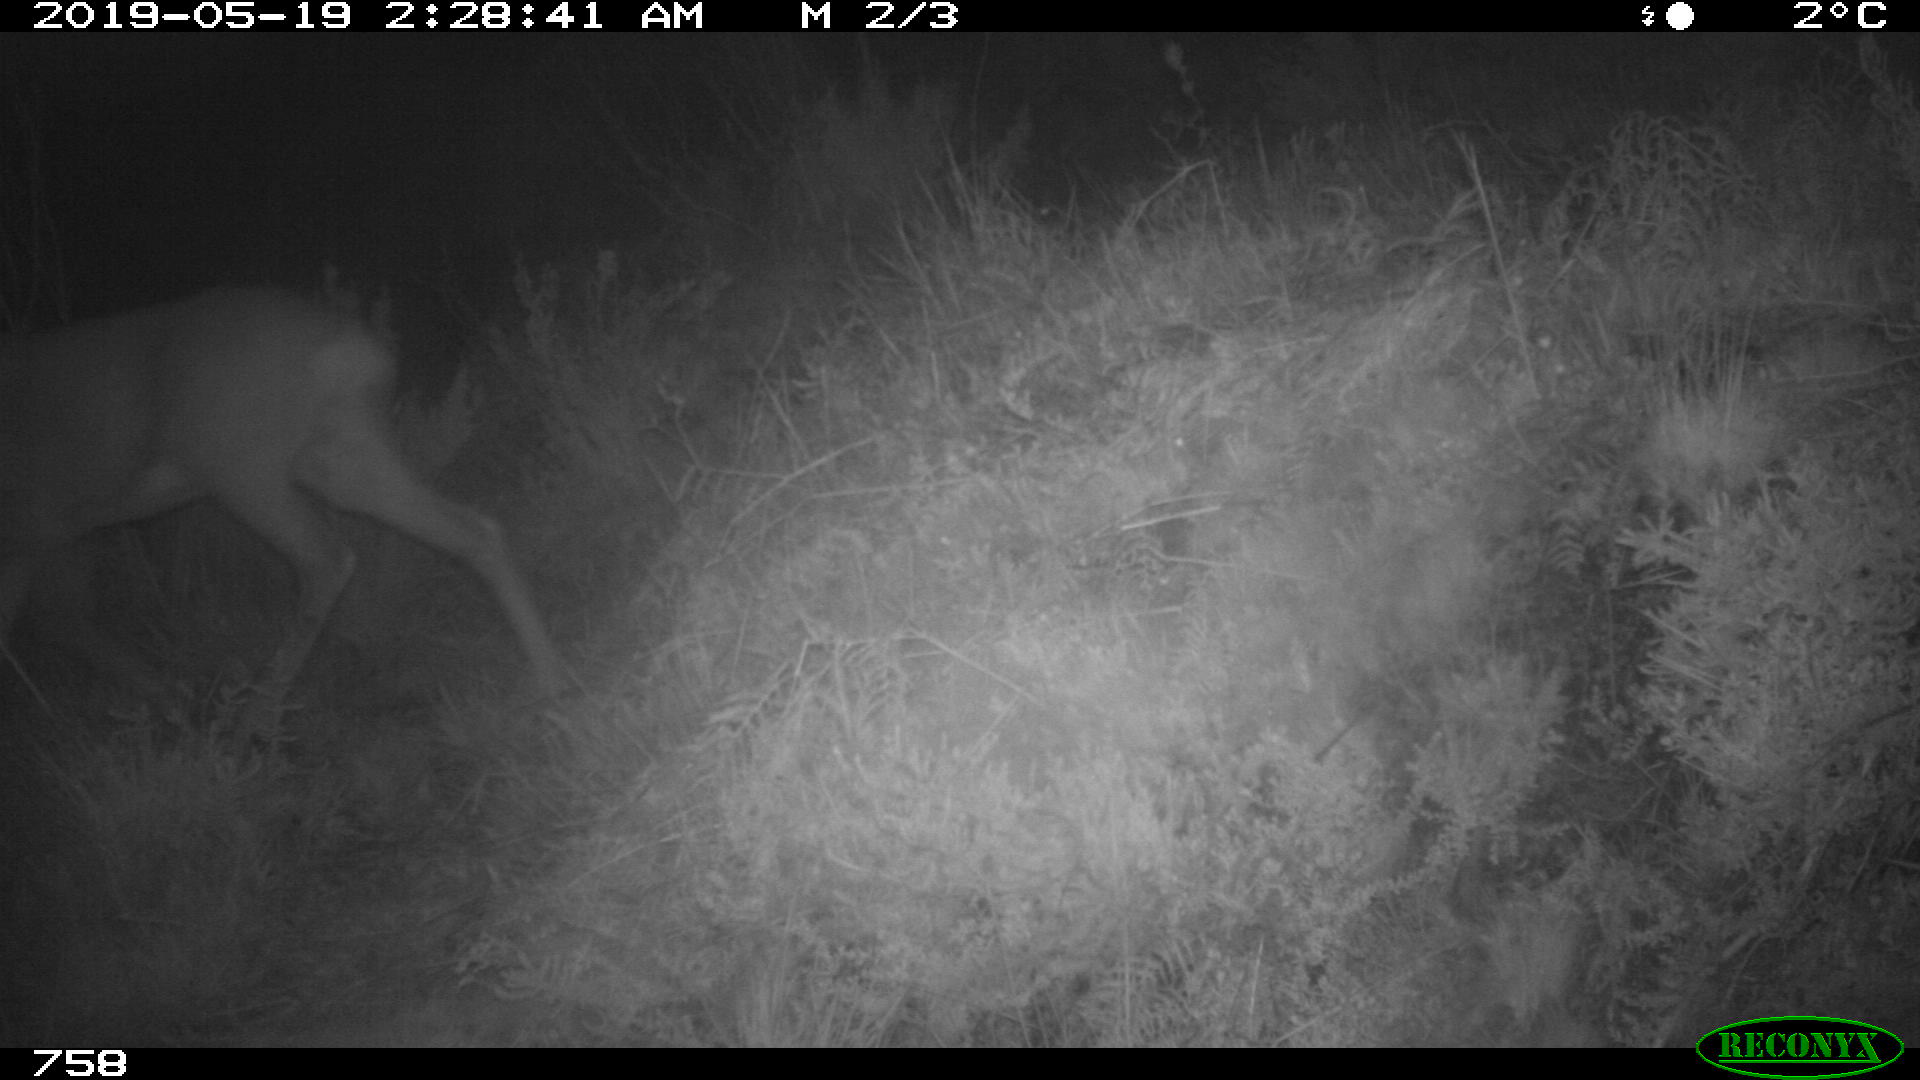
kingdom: Animalia
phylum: Chordata
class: Mammalia
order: Artiodactyla
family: Cervidae
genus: Capreolus
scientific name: Capreolus capreolus
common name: Western roe deer
